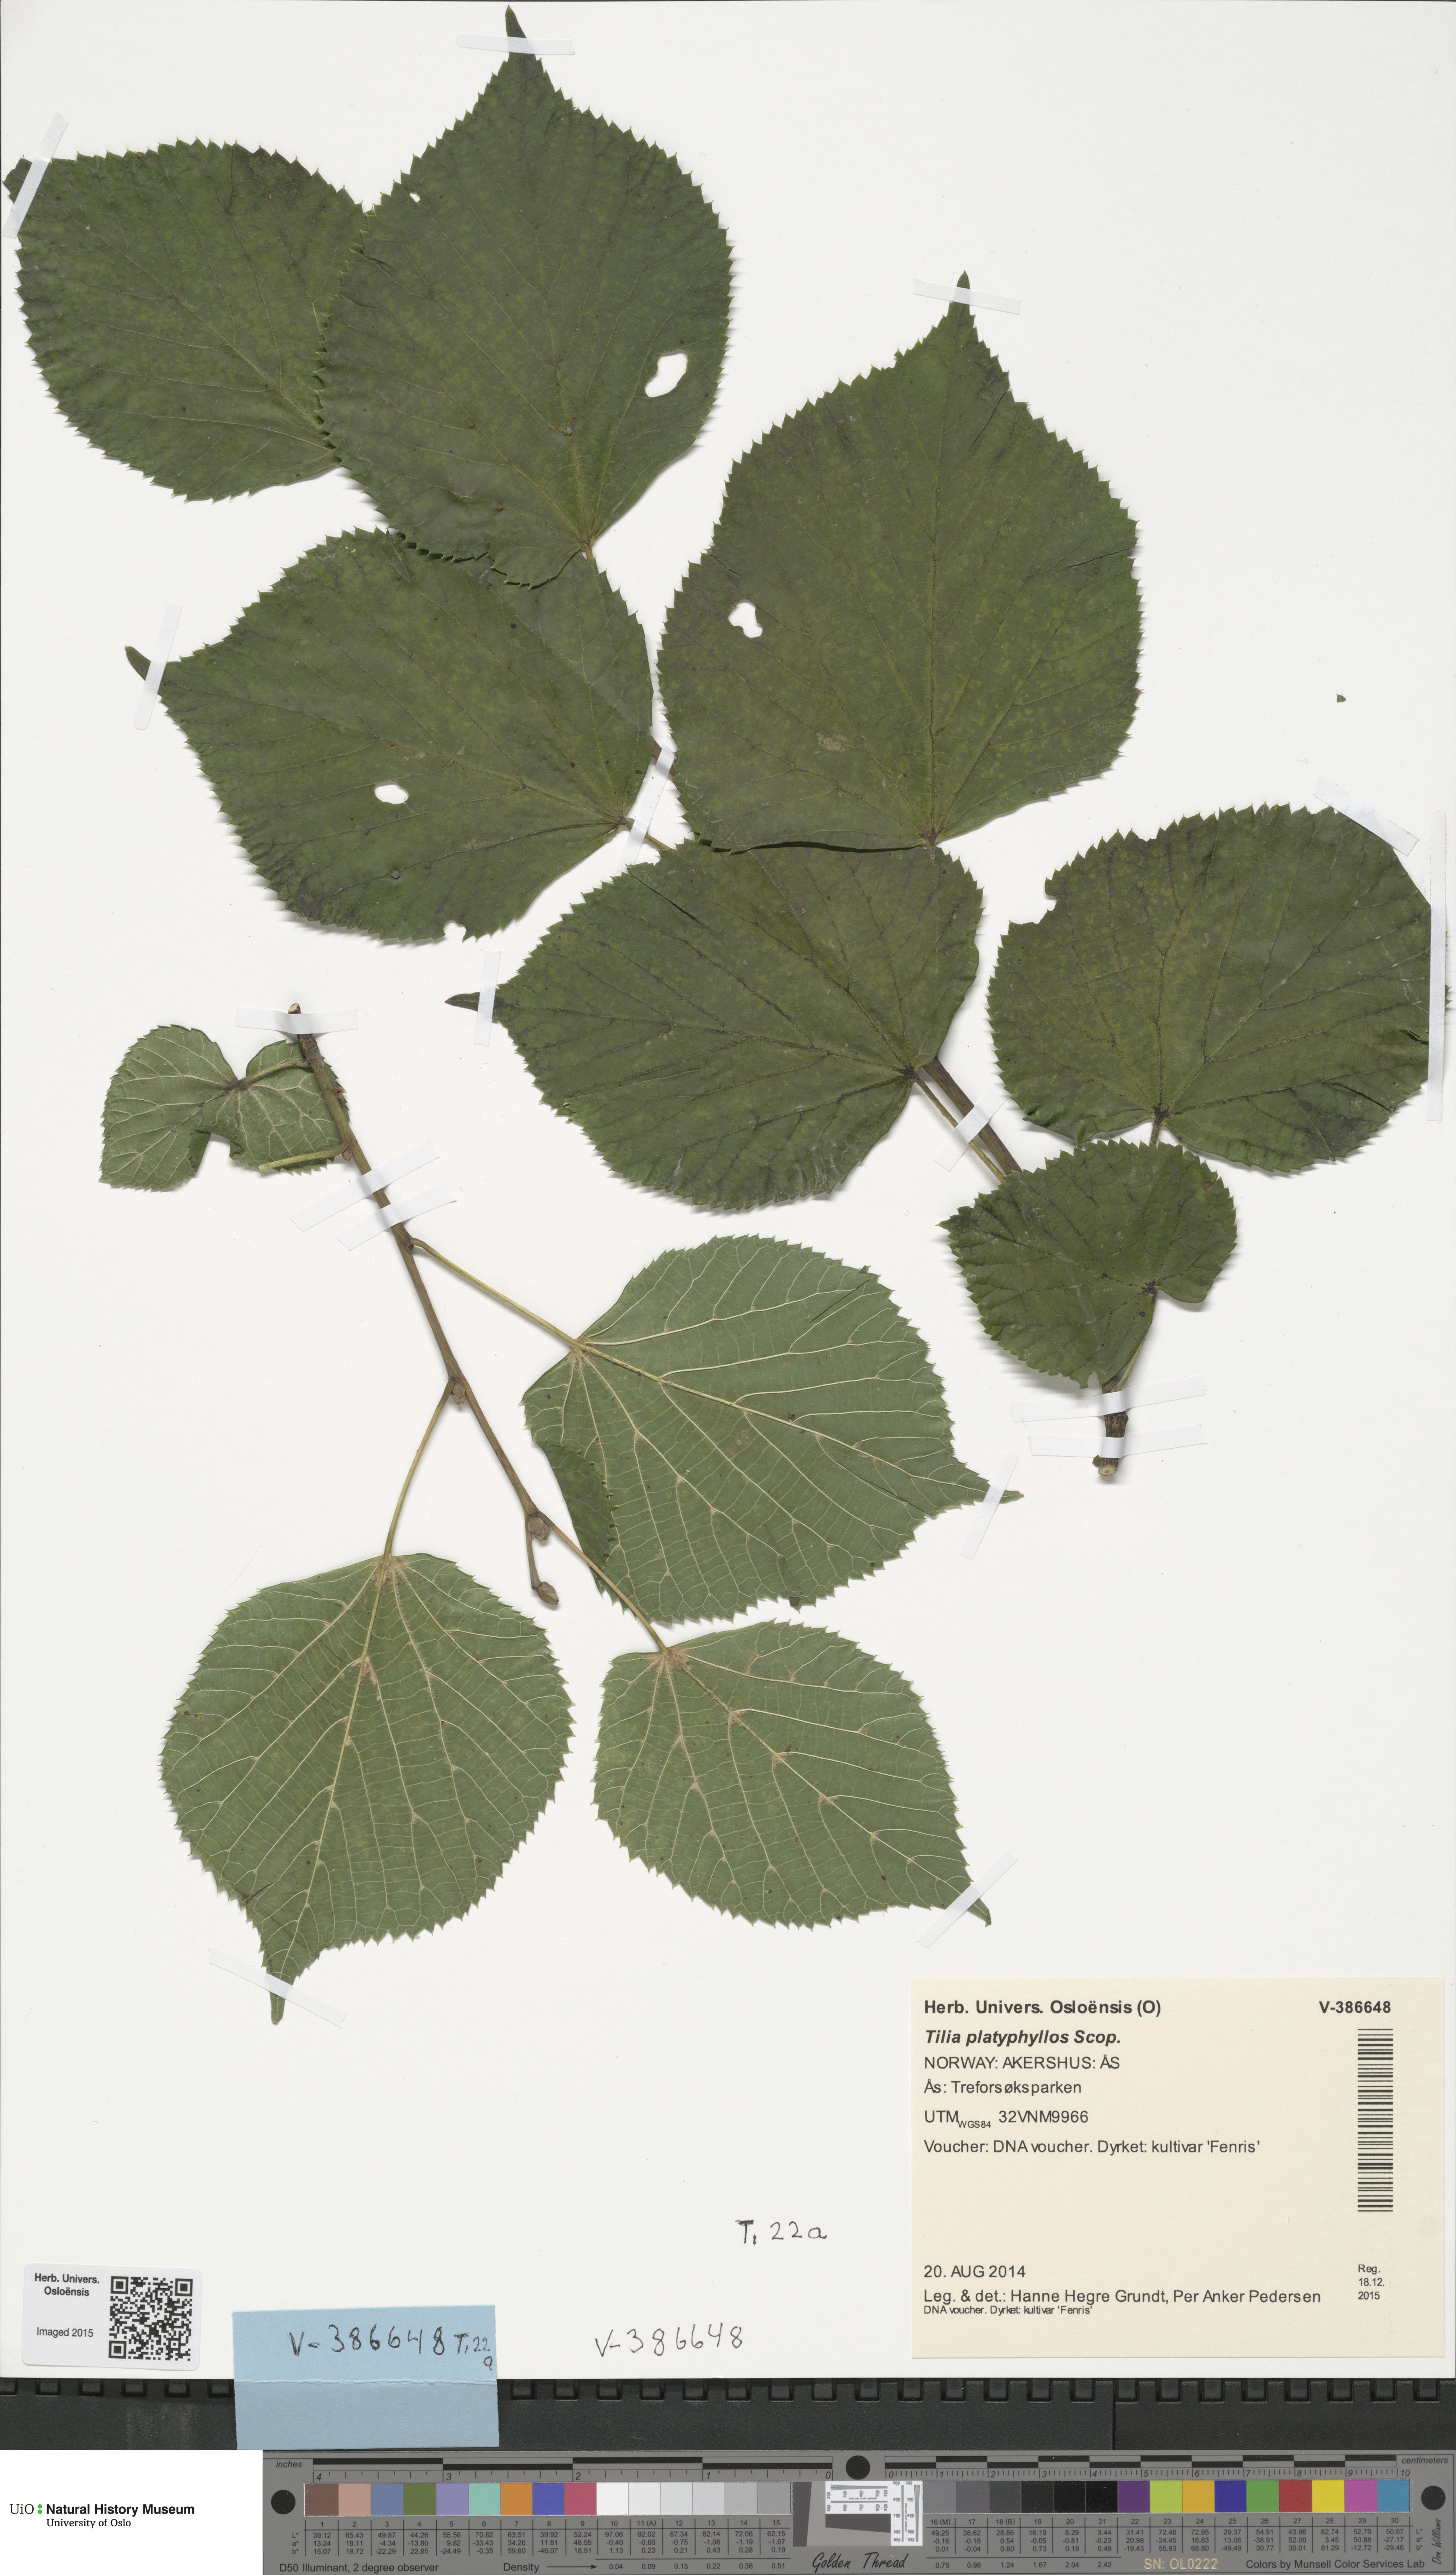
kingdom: Plantae
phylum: Tracheophyta
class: Magnoliopsida
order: Malvales
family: Malvaceae
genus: Tilia
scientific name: Tilia platyphyllos
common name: Large-leaved lime
